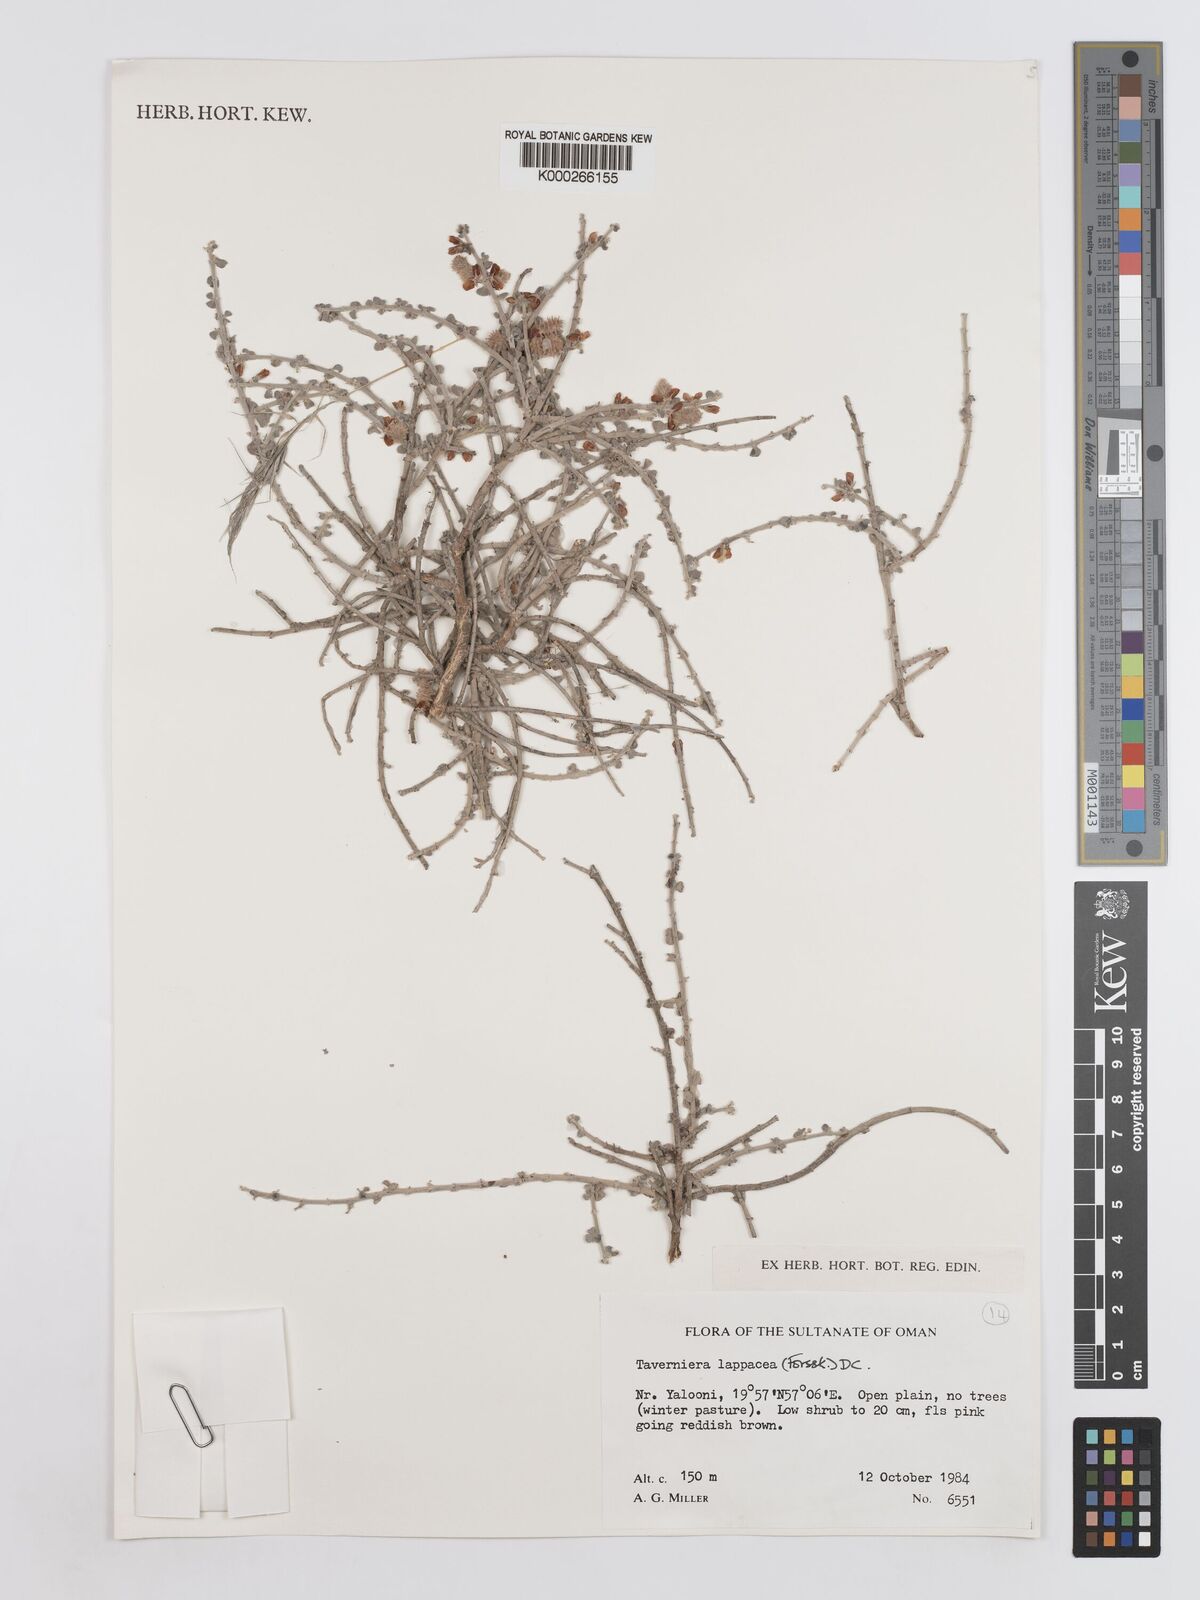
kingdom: Plantae
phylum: Tracheophyta
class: Magnoliopsida
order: Fabales
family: Fabaceae
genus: Taverniera
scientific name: Taverniera lappacea
